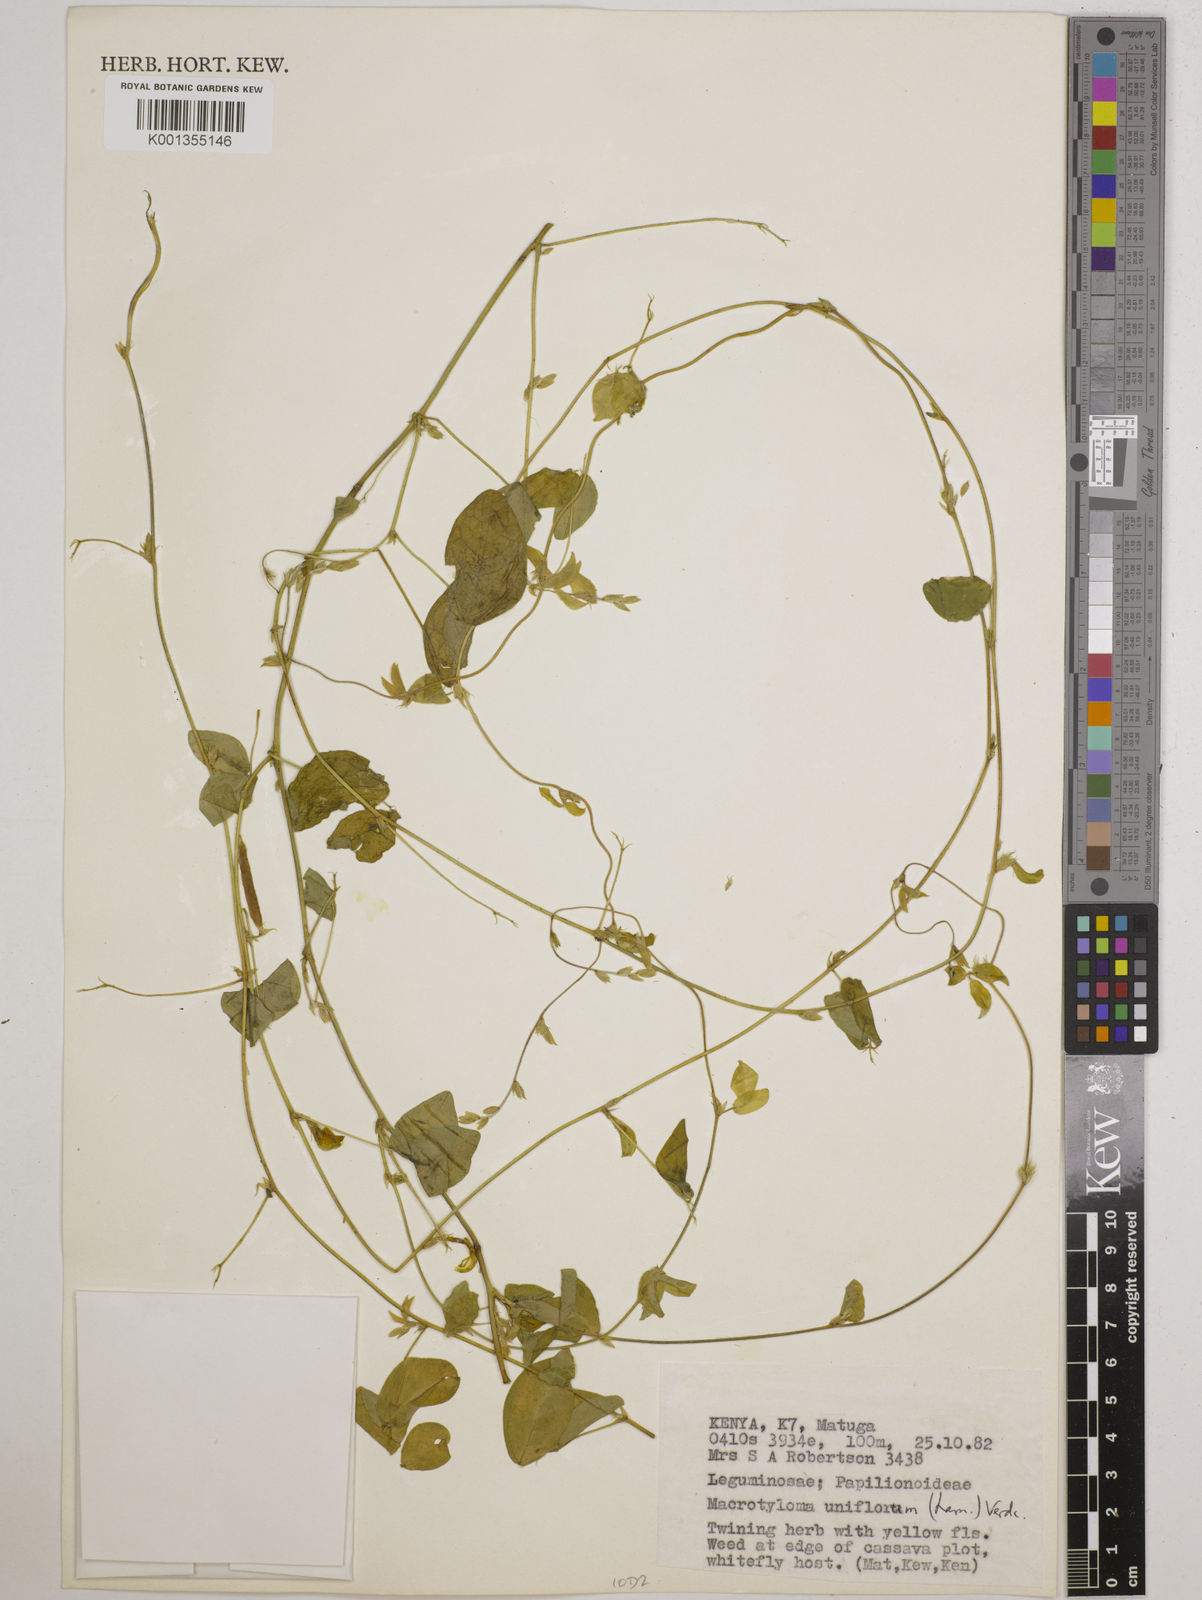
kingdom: Plantae
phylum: Tracheophyta
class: Magnoliopsida
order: Fabales
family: Fabaceae
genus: Macrotyloma
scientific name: Macrotyloma uniflorum
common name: Horse gram
